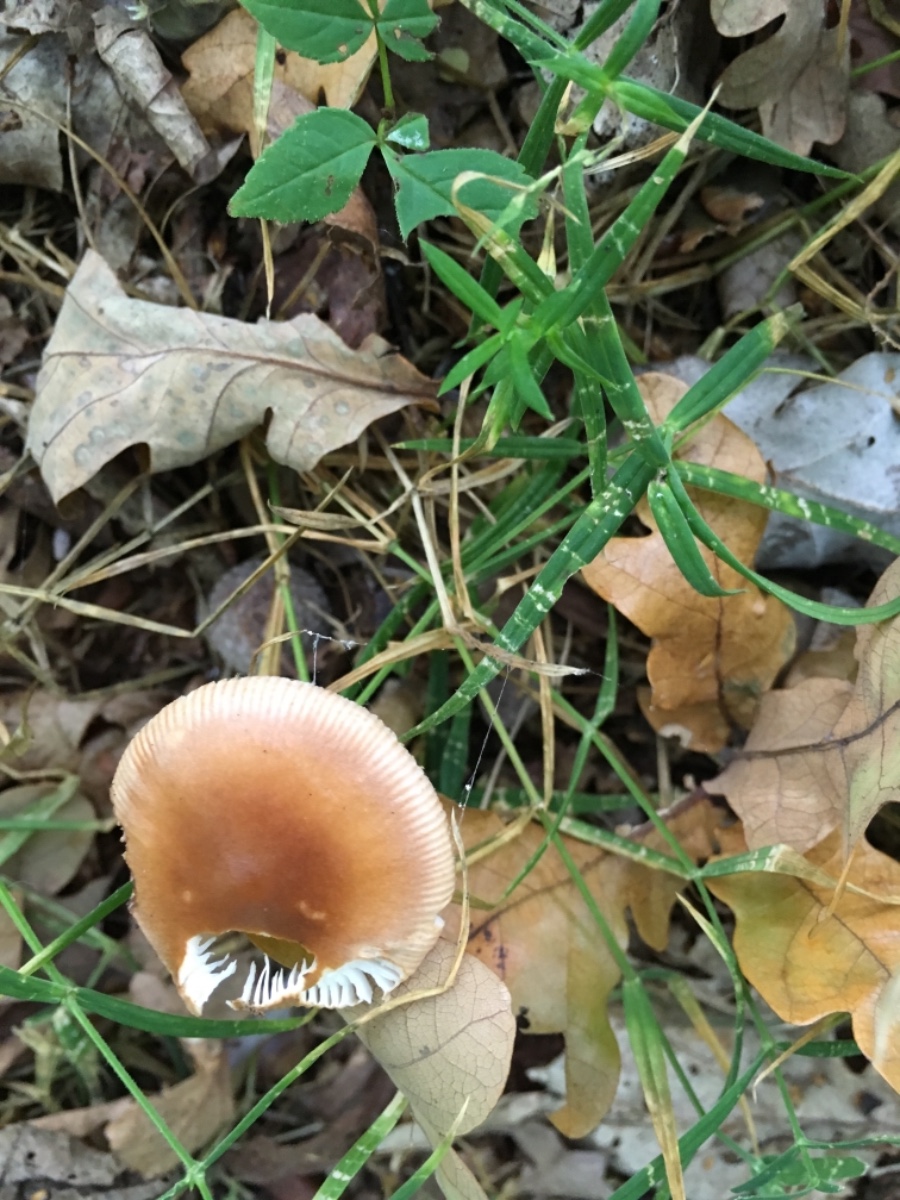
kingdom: Fungi
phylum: Basidiomycota
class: Agaricomycetes
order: Agaricales
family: Amanitaceae
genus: Amanita
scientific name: Amanita fulva
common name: brun kam-fluesvamp
